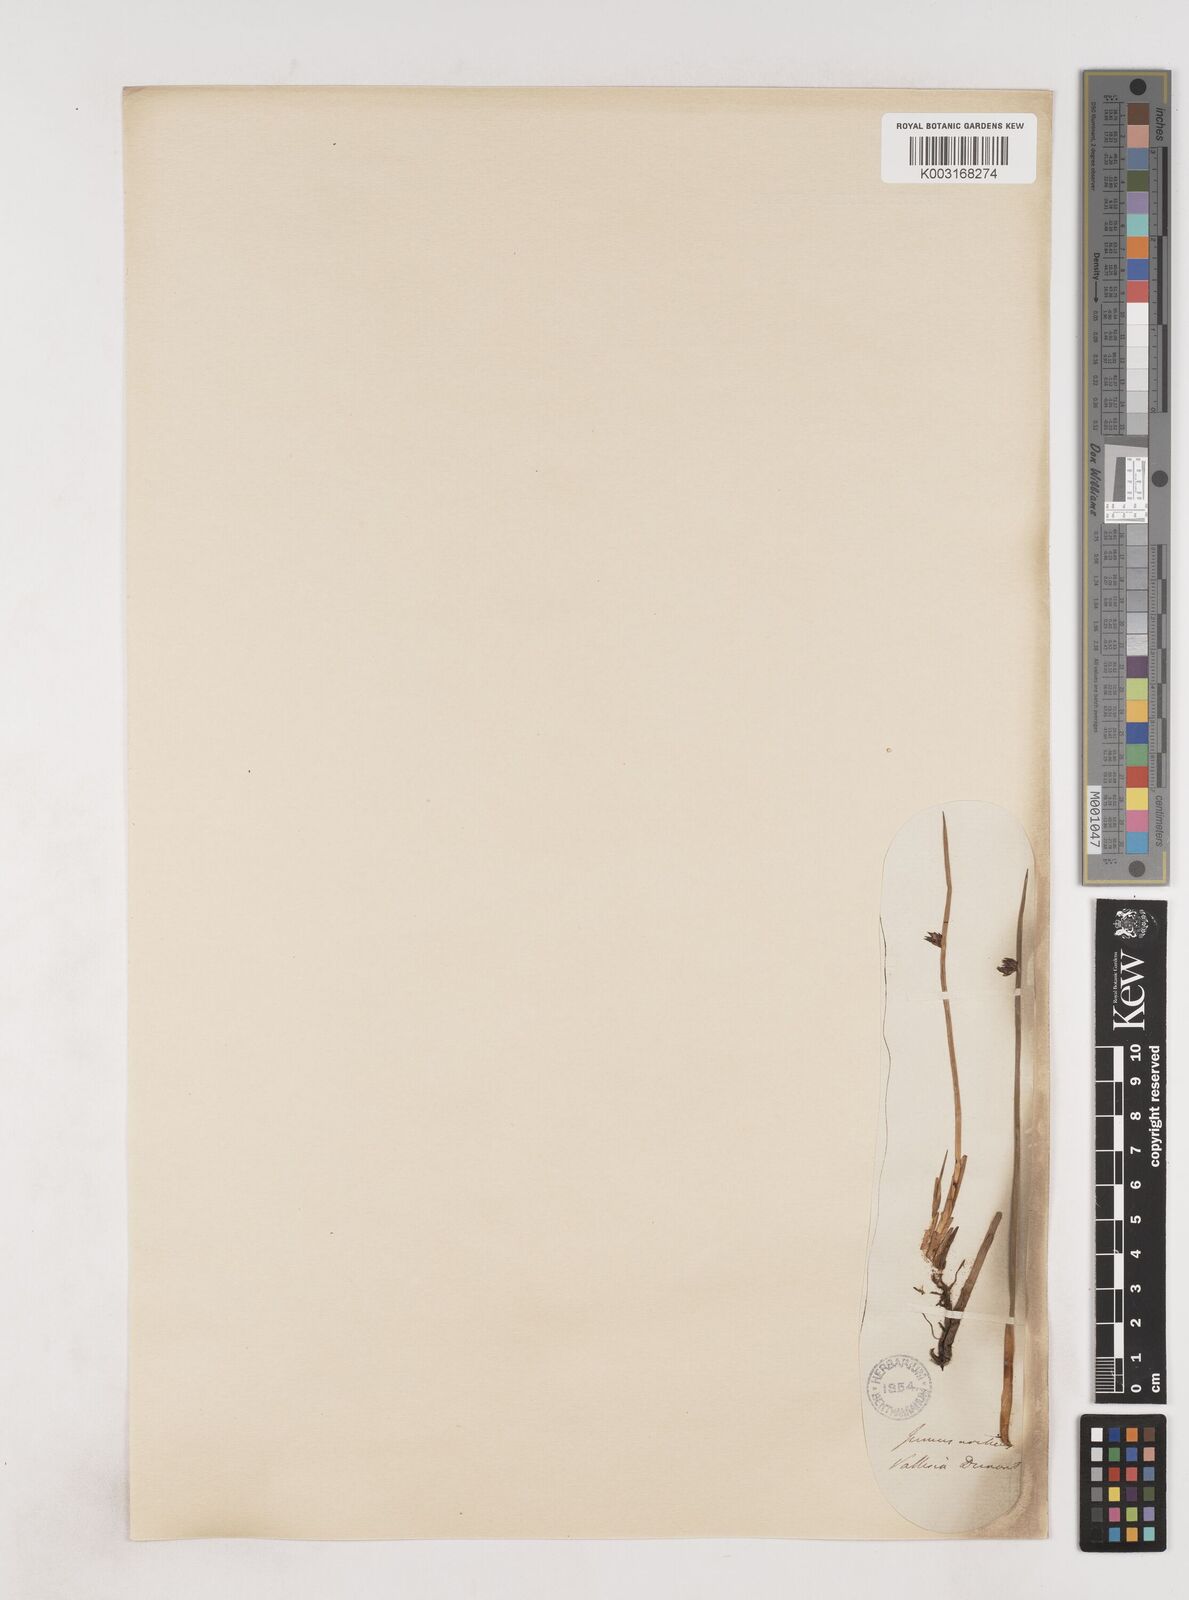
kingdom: Plantae
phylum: Tracheophyta
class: Liliopsida
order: Poales
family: Juncaceae
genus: Juncus
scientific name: Juncus arcticus
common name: Arctic rush
